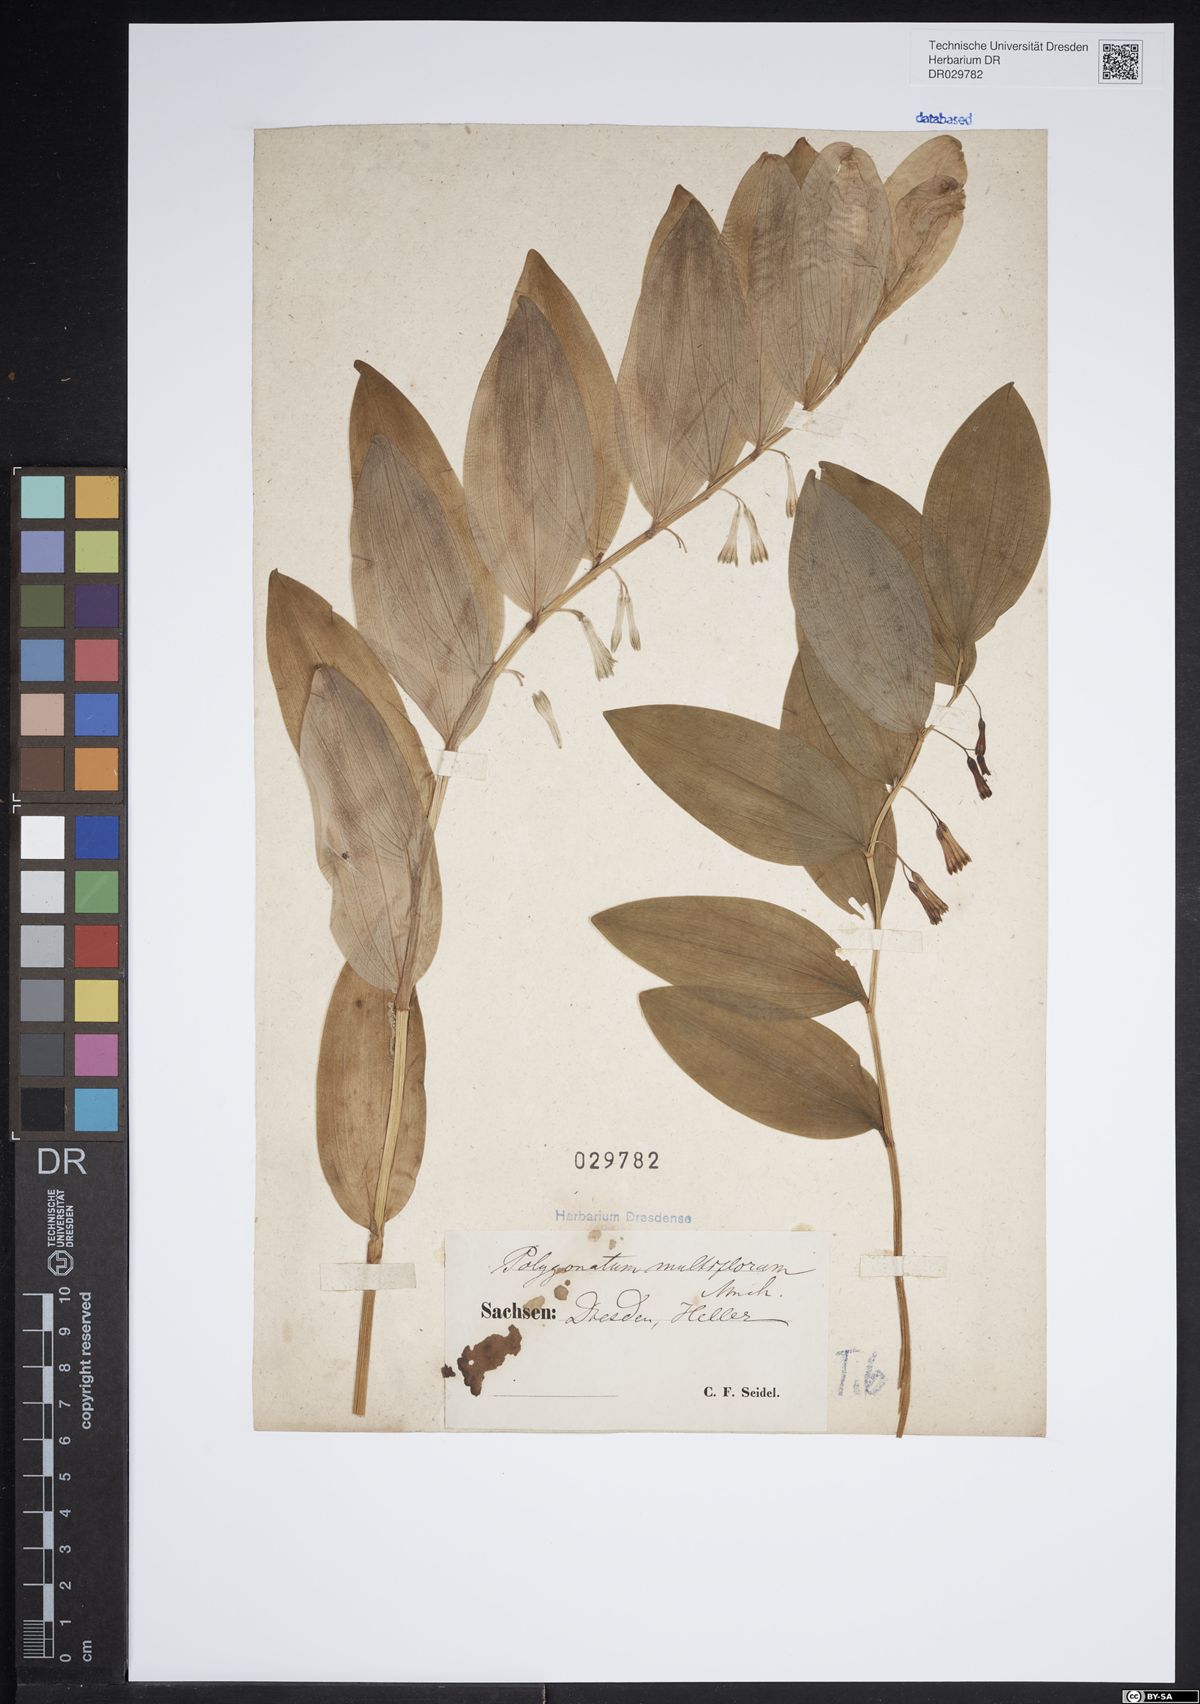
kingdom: Plantae
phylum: Tracheophyta
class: Liliopsida
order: Asparagales
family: Asparagaceae
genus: Polygonatum
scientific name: Polygonatum multiflorum
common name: Solomon's-seal
